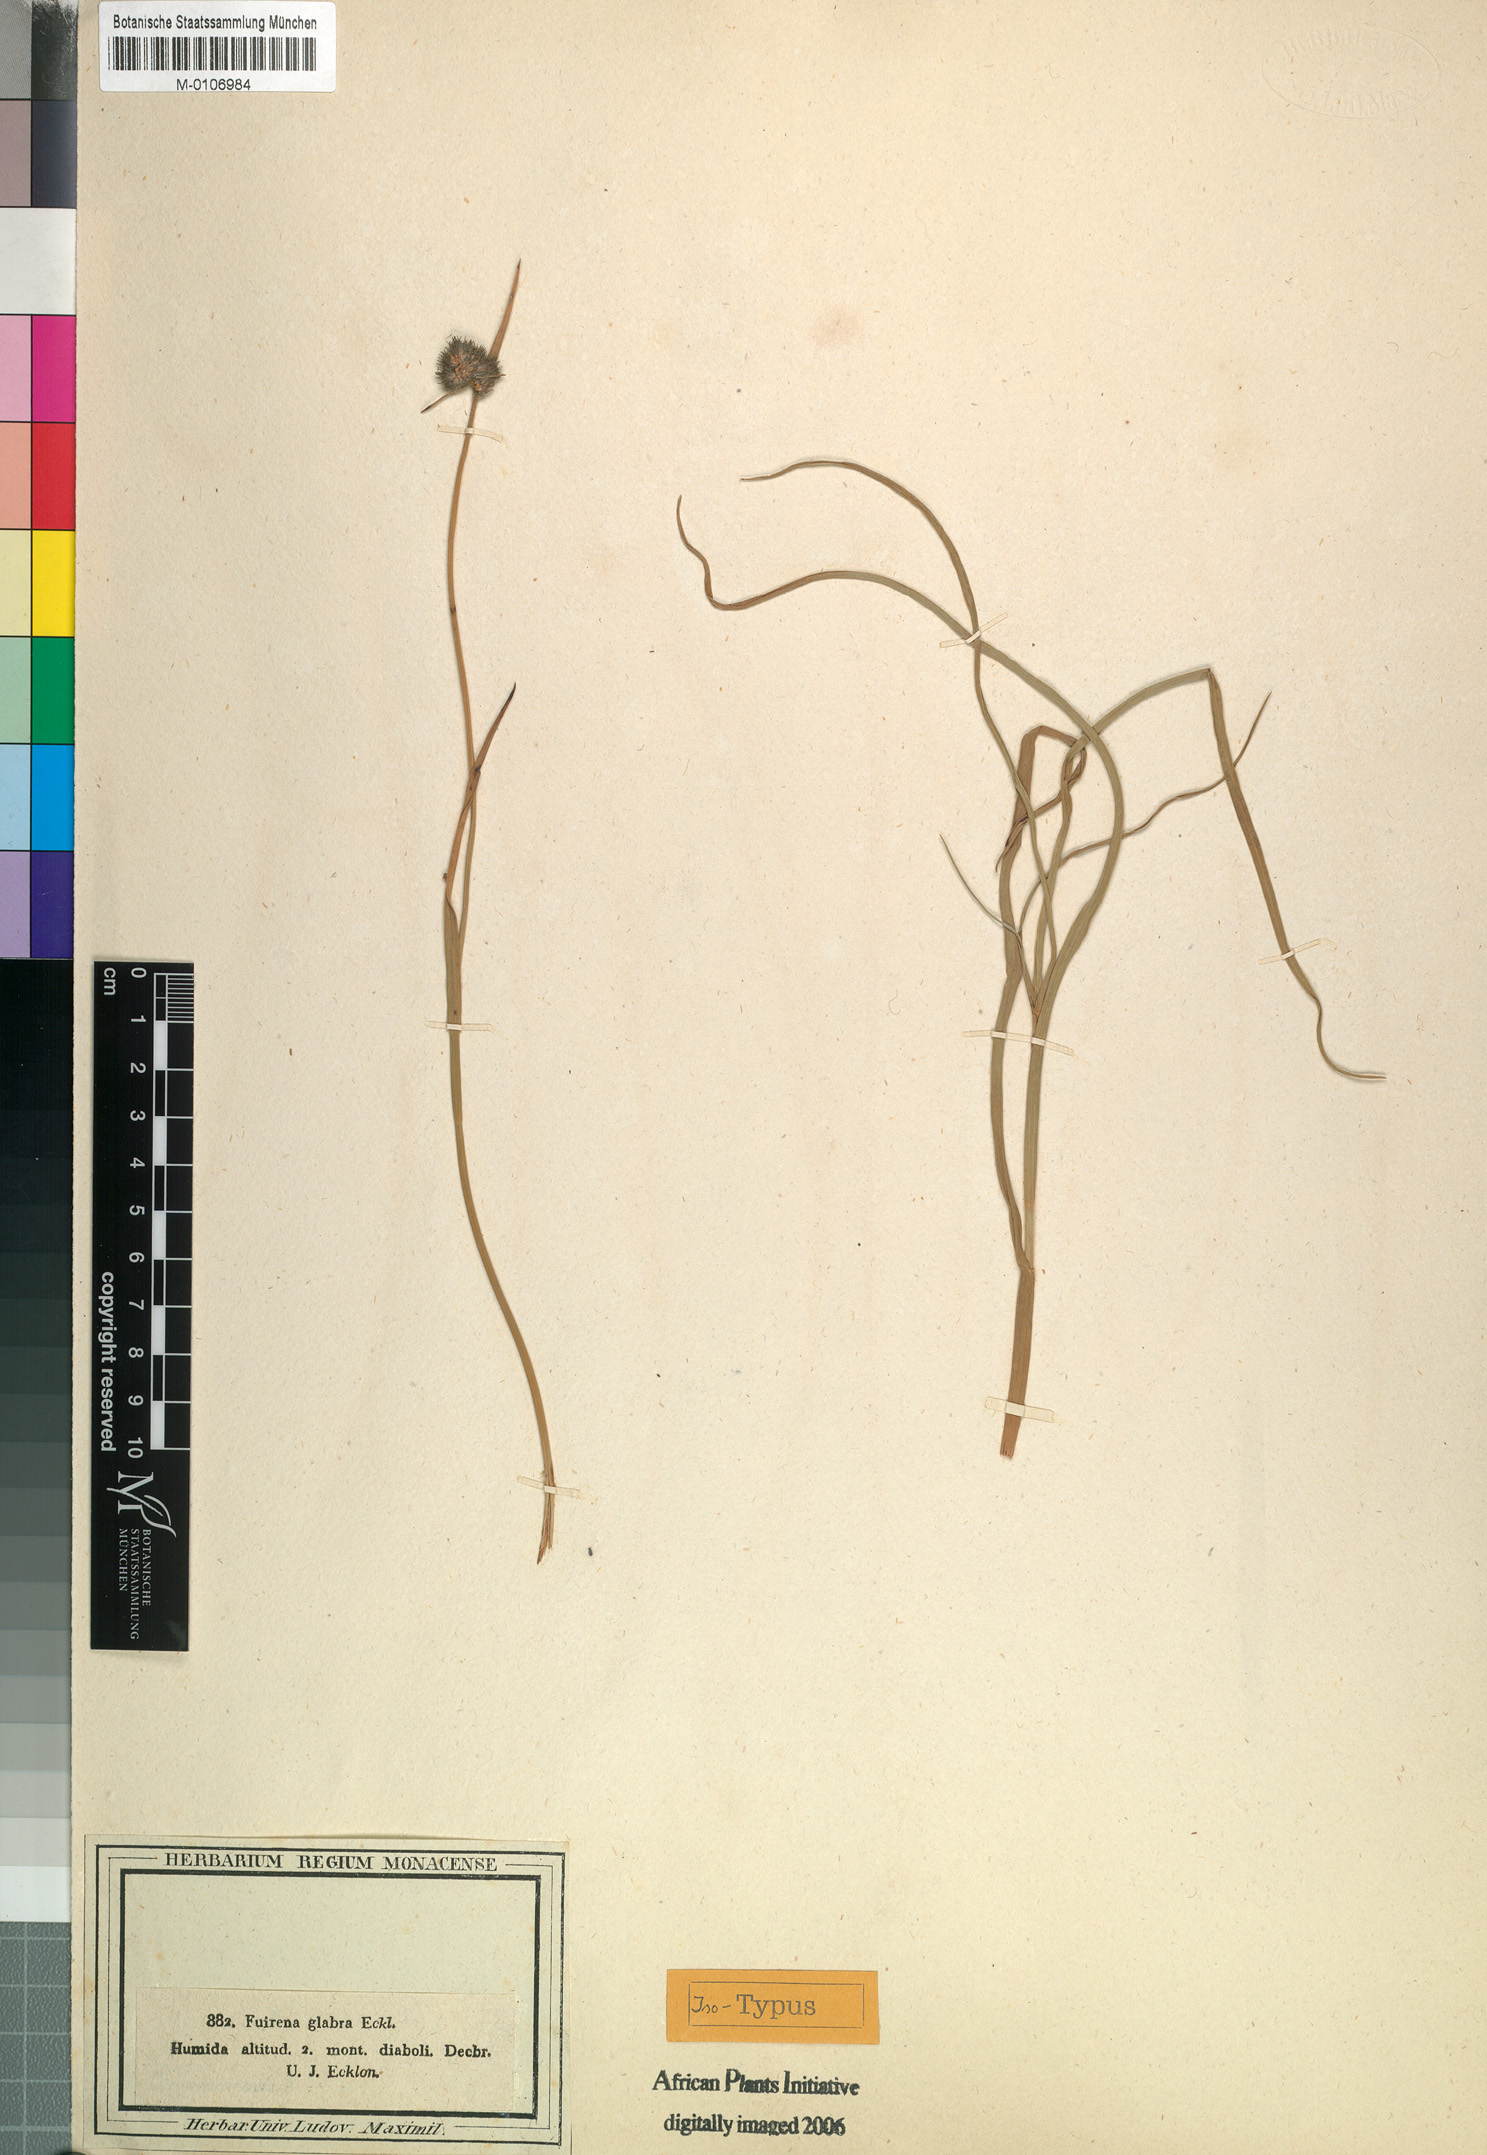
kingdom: Plantae
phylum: Tracheophyta
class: Liliopsida
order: Poales
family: Cyperaceae
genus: Fuirena
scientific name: Fuirena hirsuta
